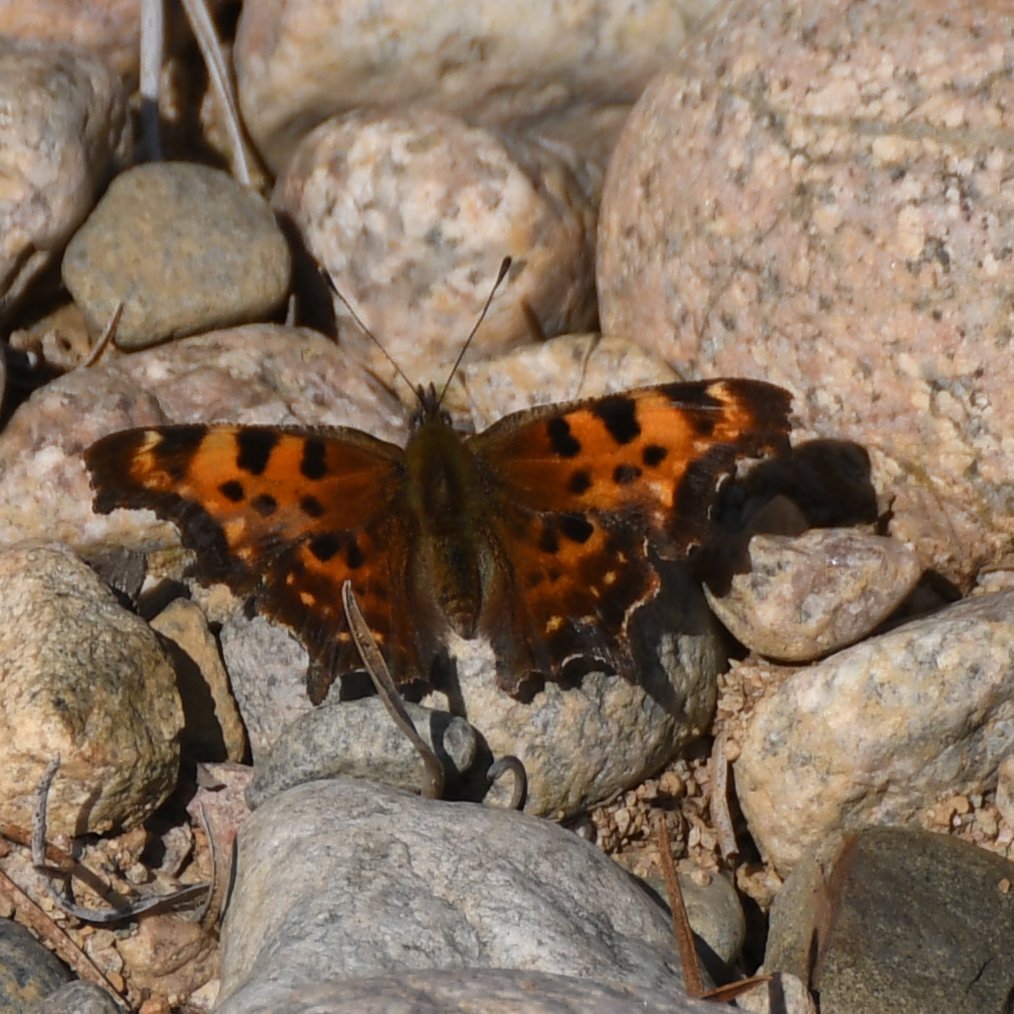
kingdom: Animalia
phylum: Arthropoda
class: Insecta
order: Lepidoptera
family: Nymphalidae
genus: Polygonia
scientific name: Polygonia faunus
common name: Green Comma
